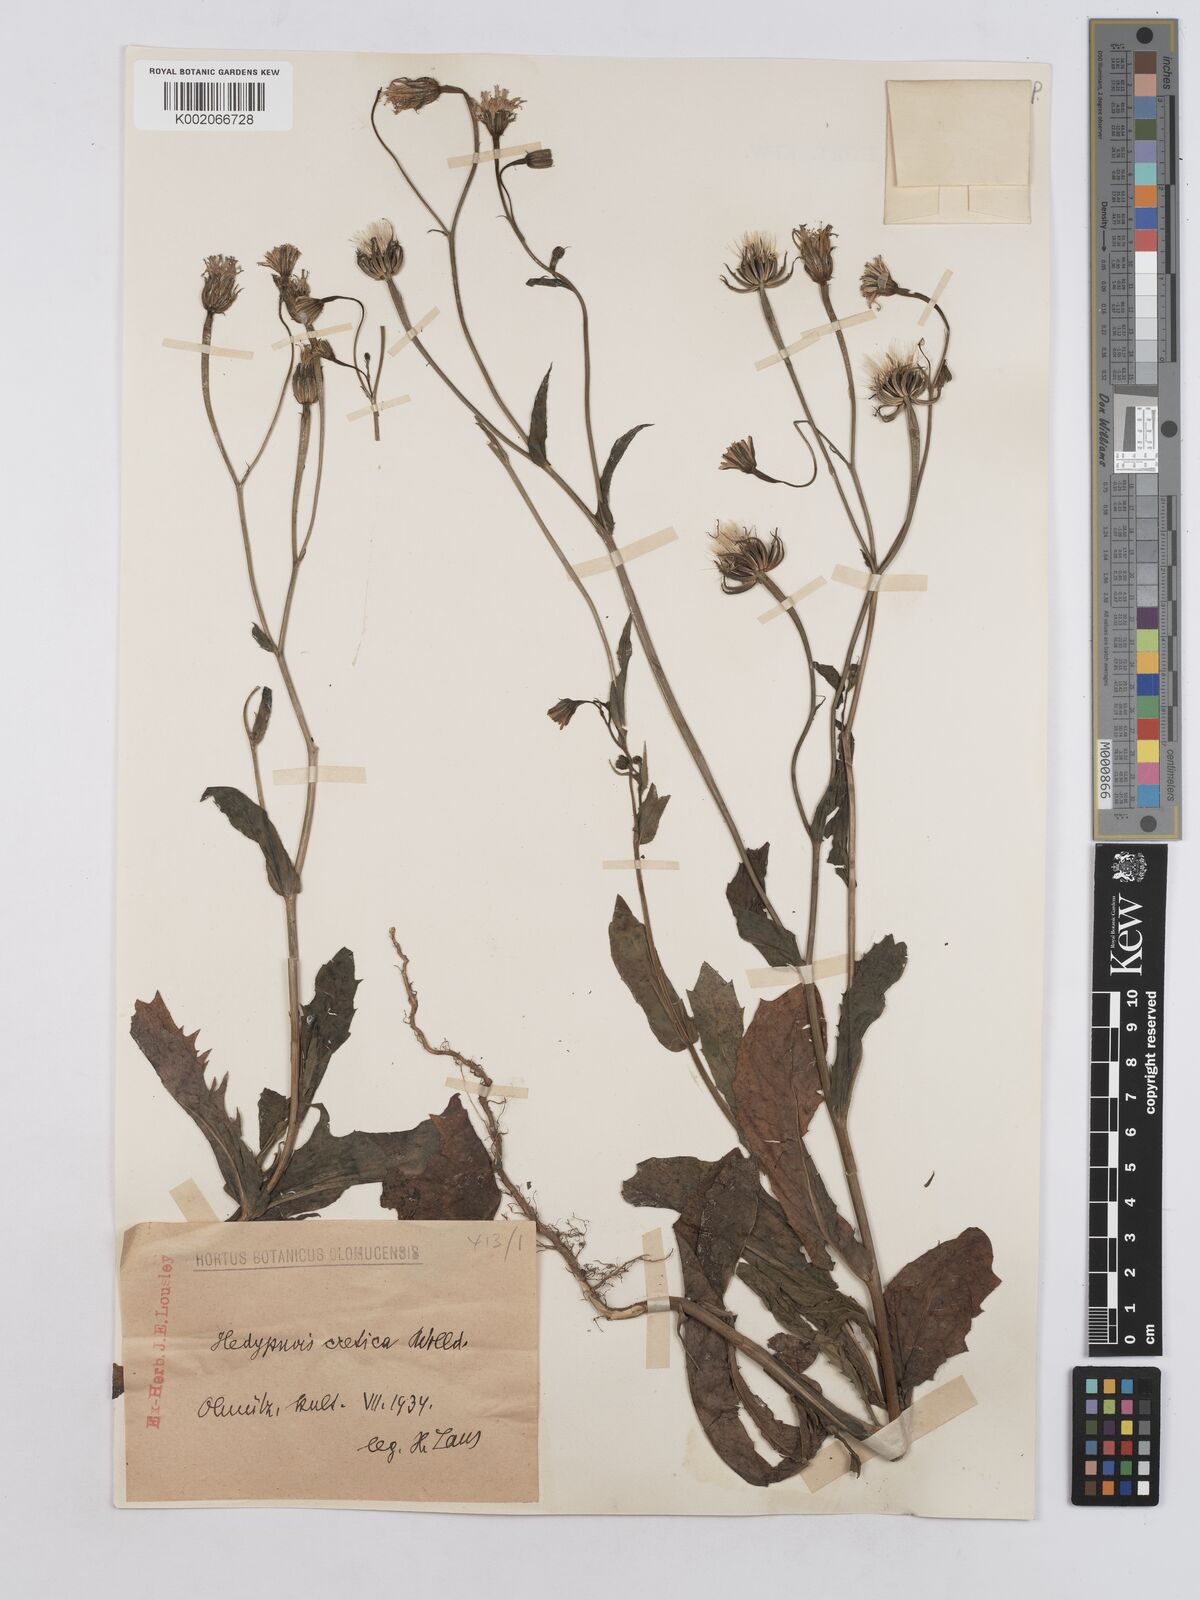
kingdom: Plantae
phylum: Tracheophyta
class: Magnoliopsida
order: Asterales
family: Asteraceae
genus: Hedypnois
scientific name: Hedypnois
